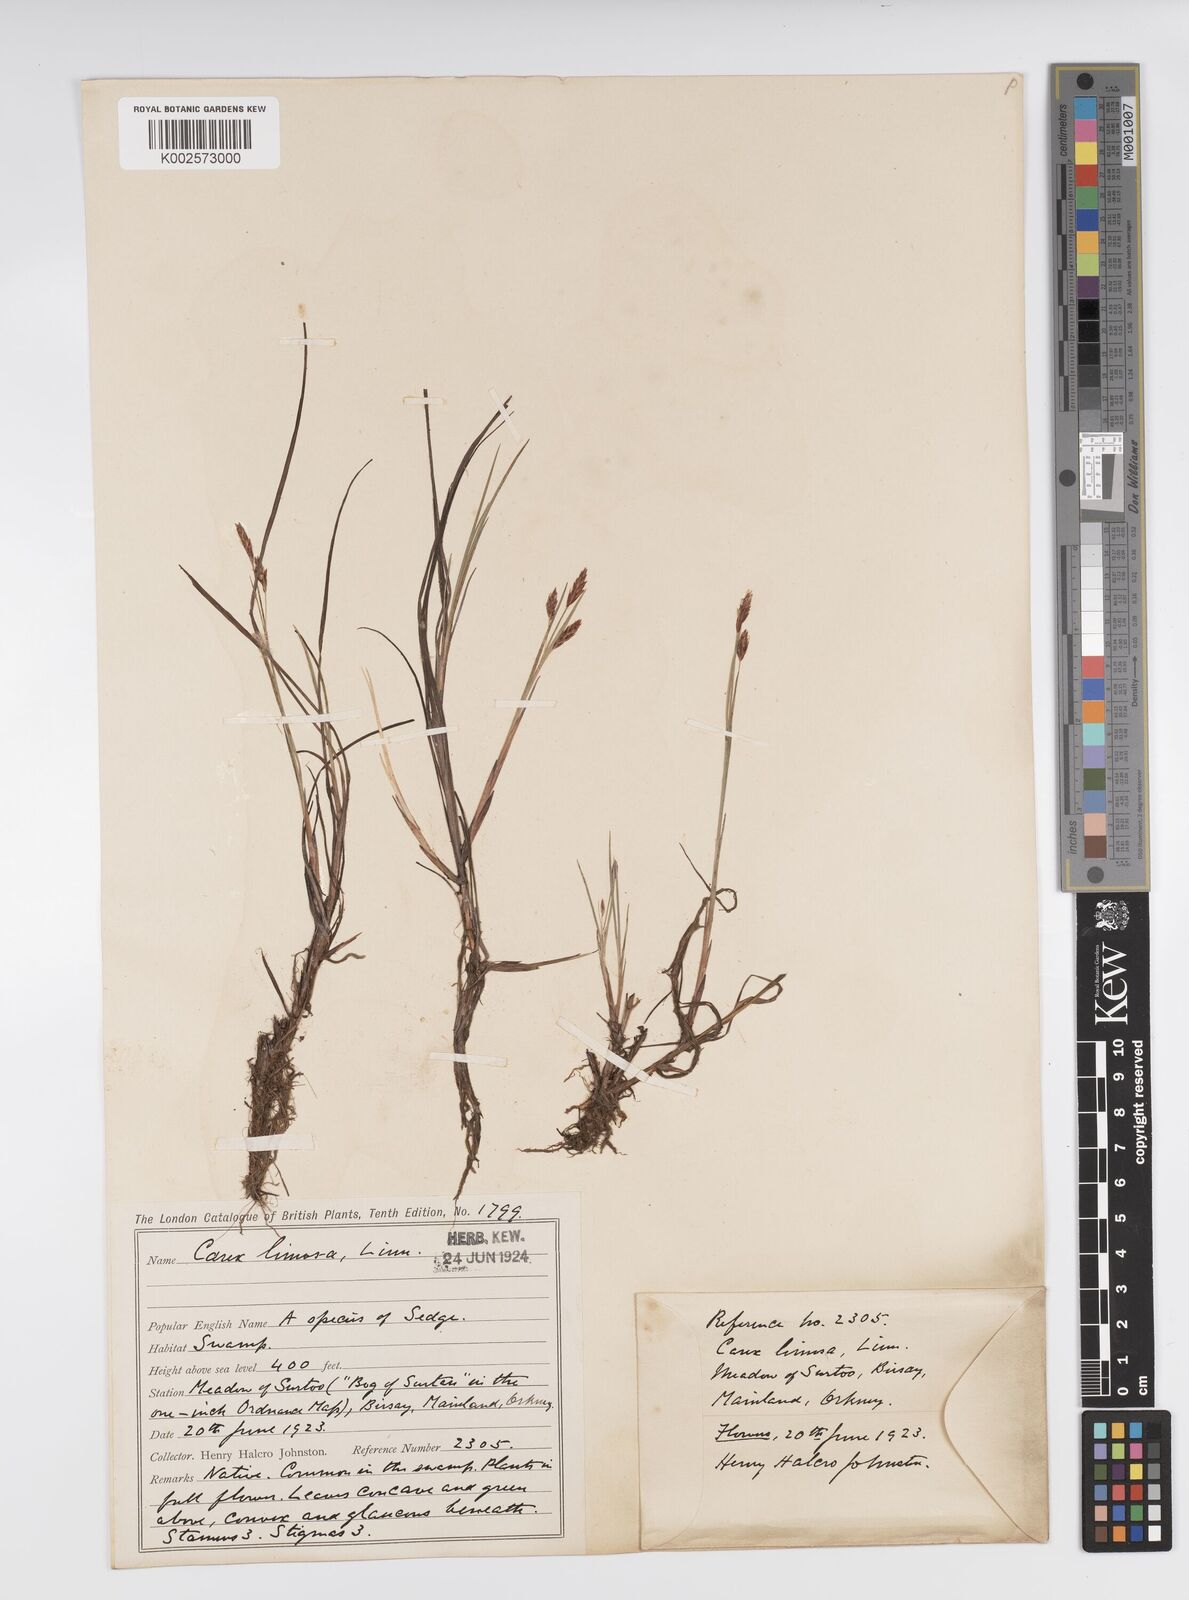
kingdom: Plantae
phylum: Tracheophyta
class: Liliopsida
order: Poales
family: Cyperaceae
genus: Carex
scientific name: Carex limosa
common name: Bog sedge
